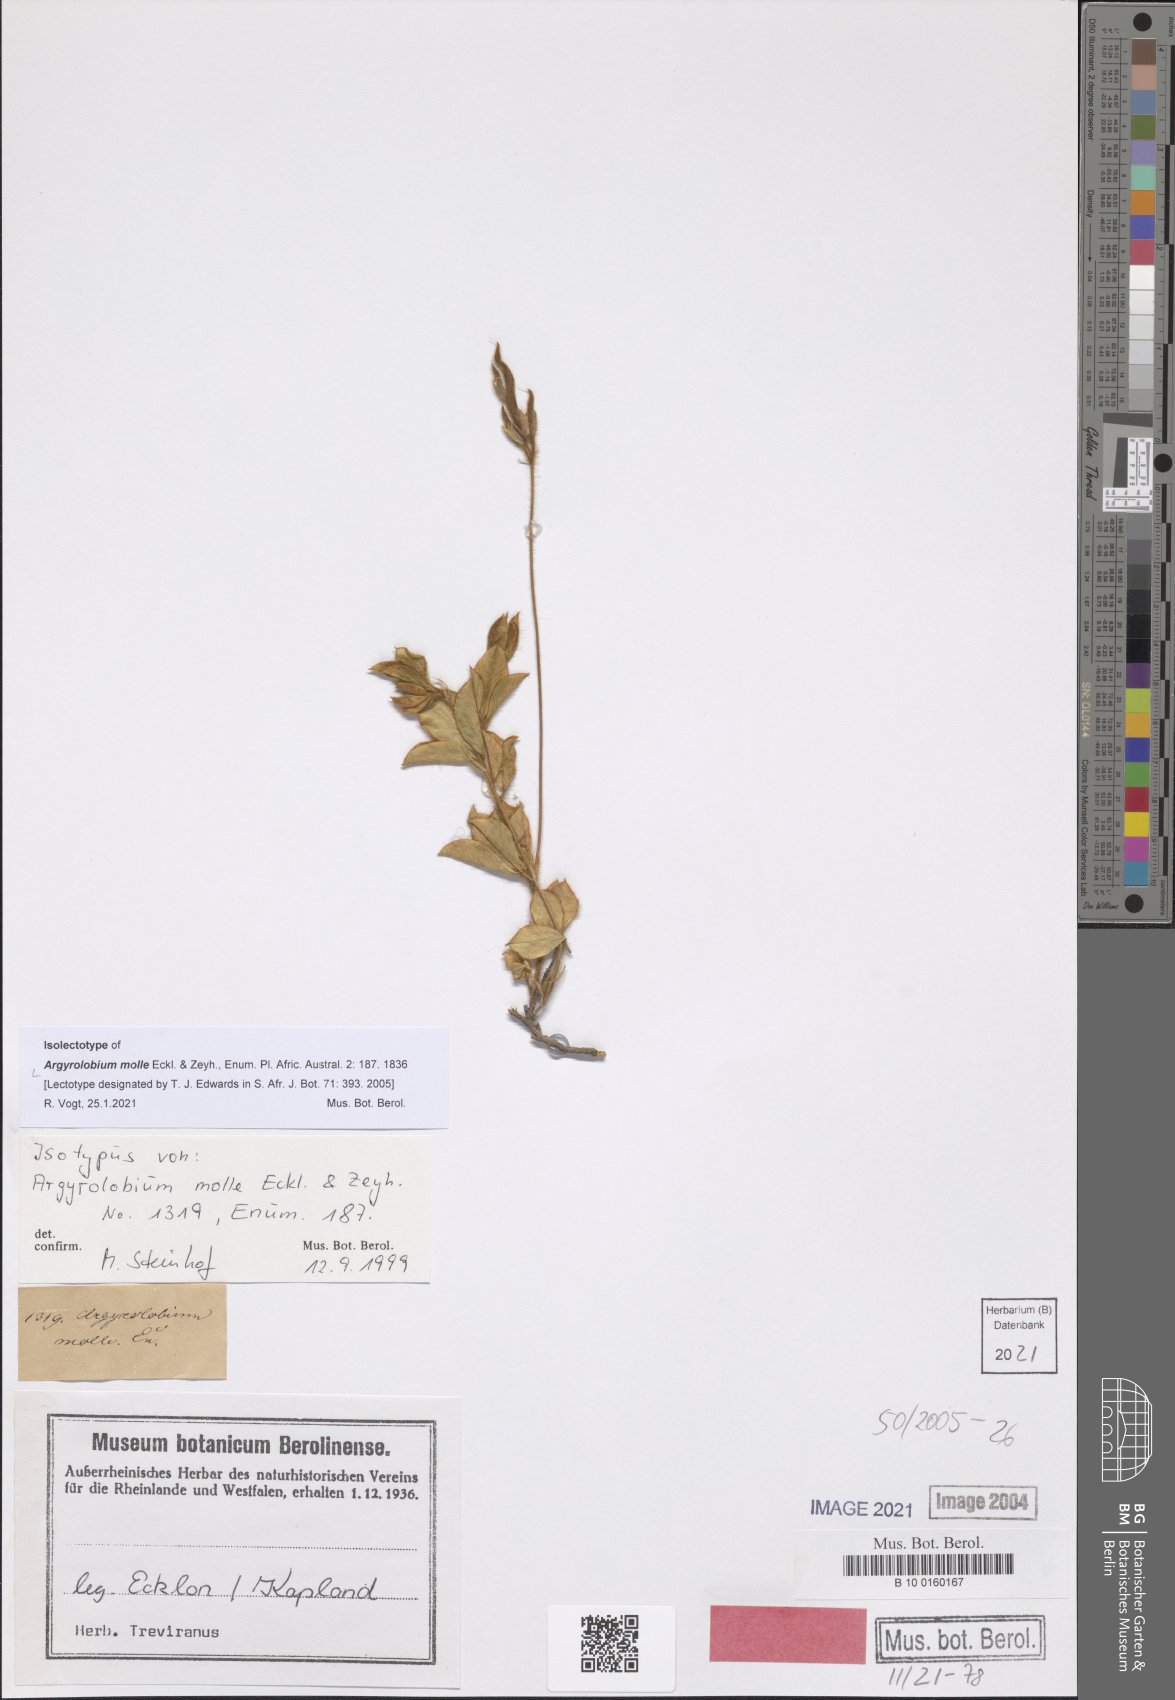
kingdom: Plantae
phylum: Tracheophyta
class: Magnoliopsida
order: Fabales
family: Fabaceae
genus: Argyrolobium
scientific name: Argyrolobium molle
